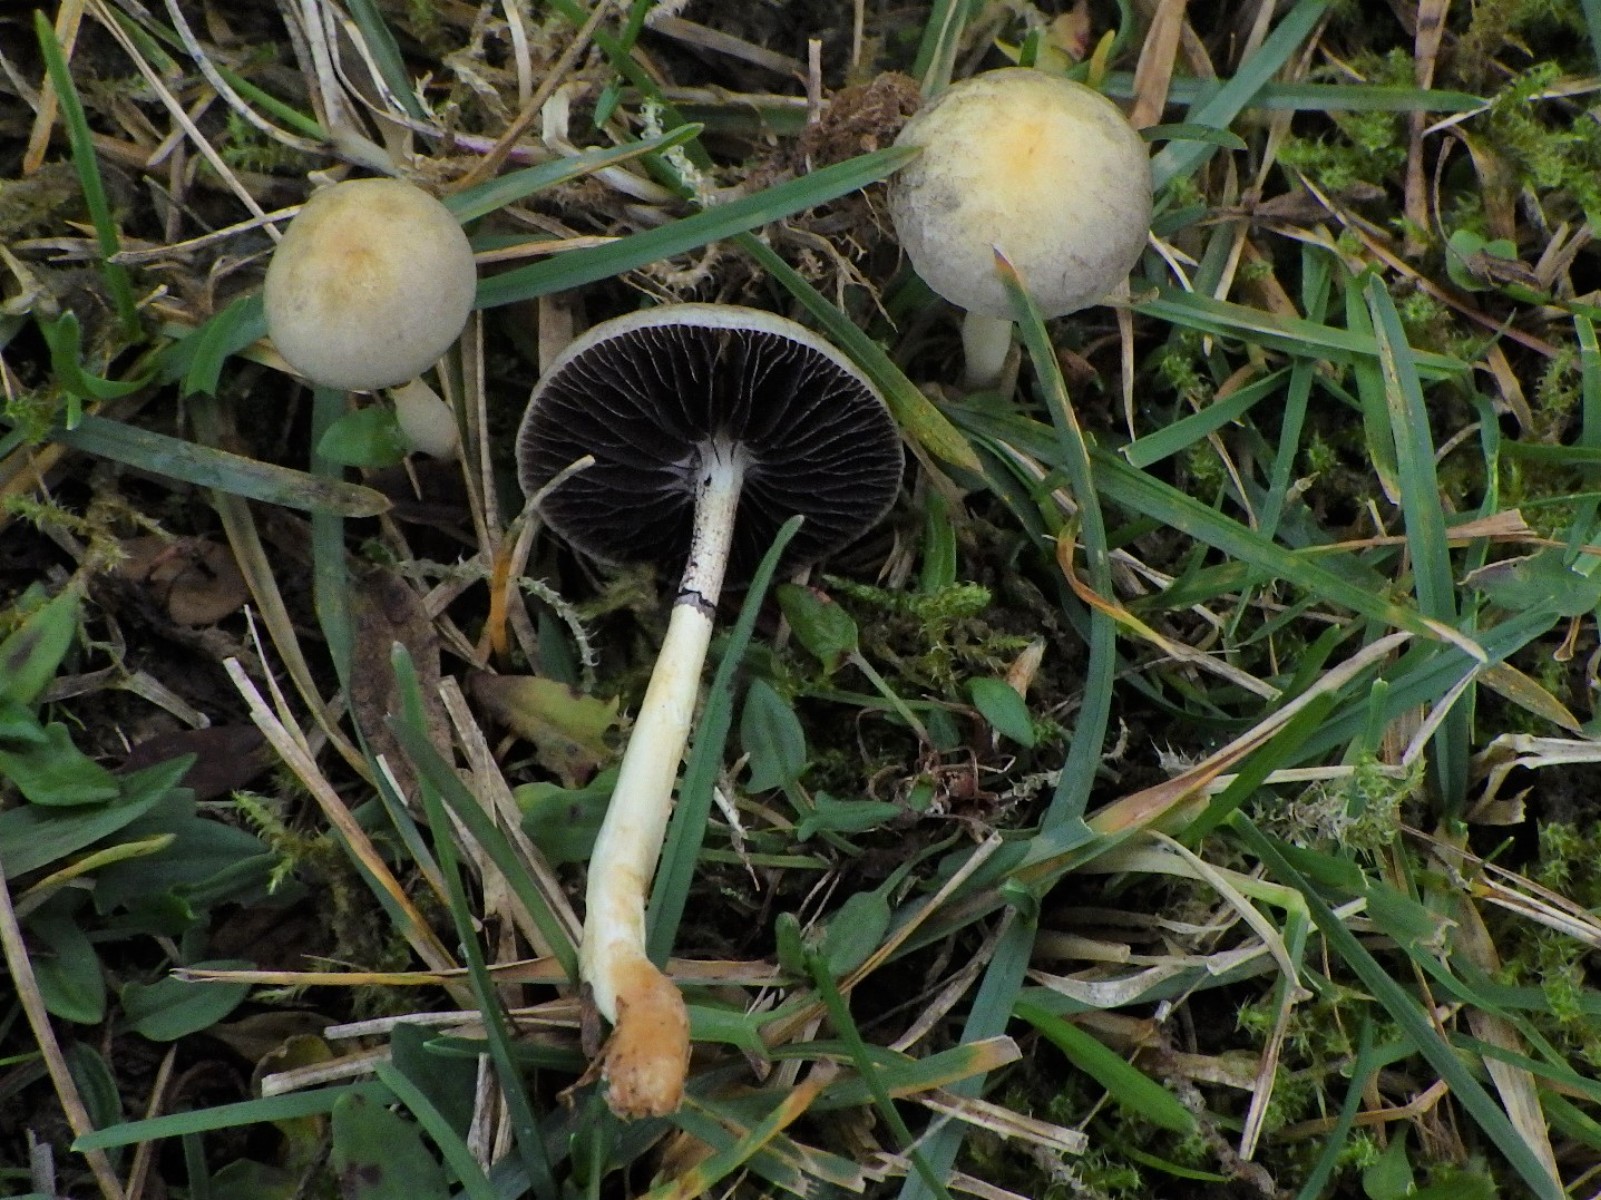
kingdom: Fungi
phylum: Basidiomycota
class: Agaricomycetes
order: Agaricales
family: Strophariaceae
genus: Protostropharia
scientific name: Protostropharia semiglobata
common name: halvkugleformet bredblad
